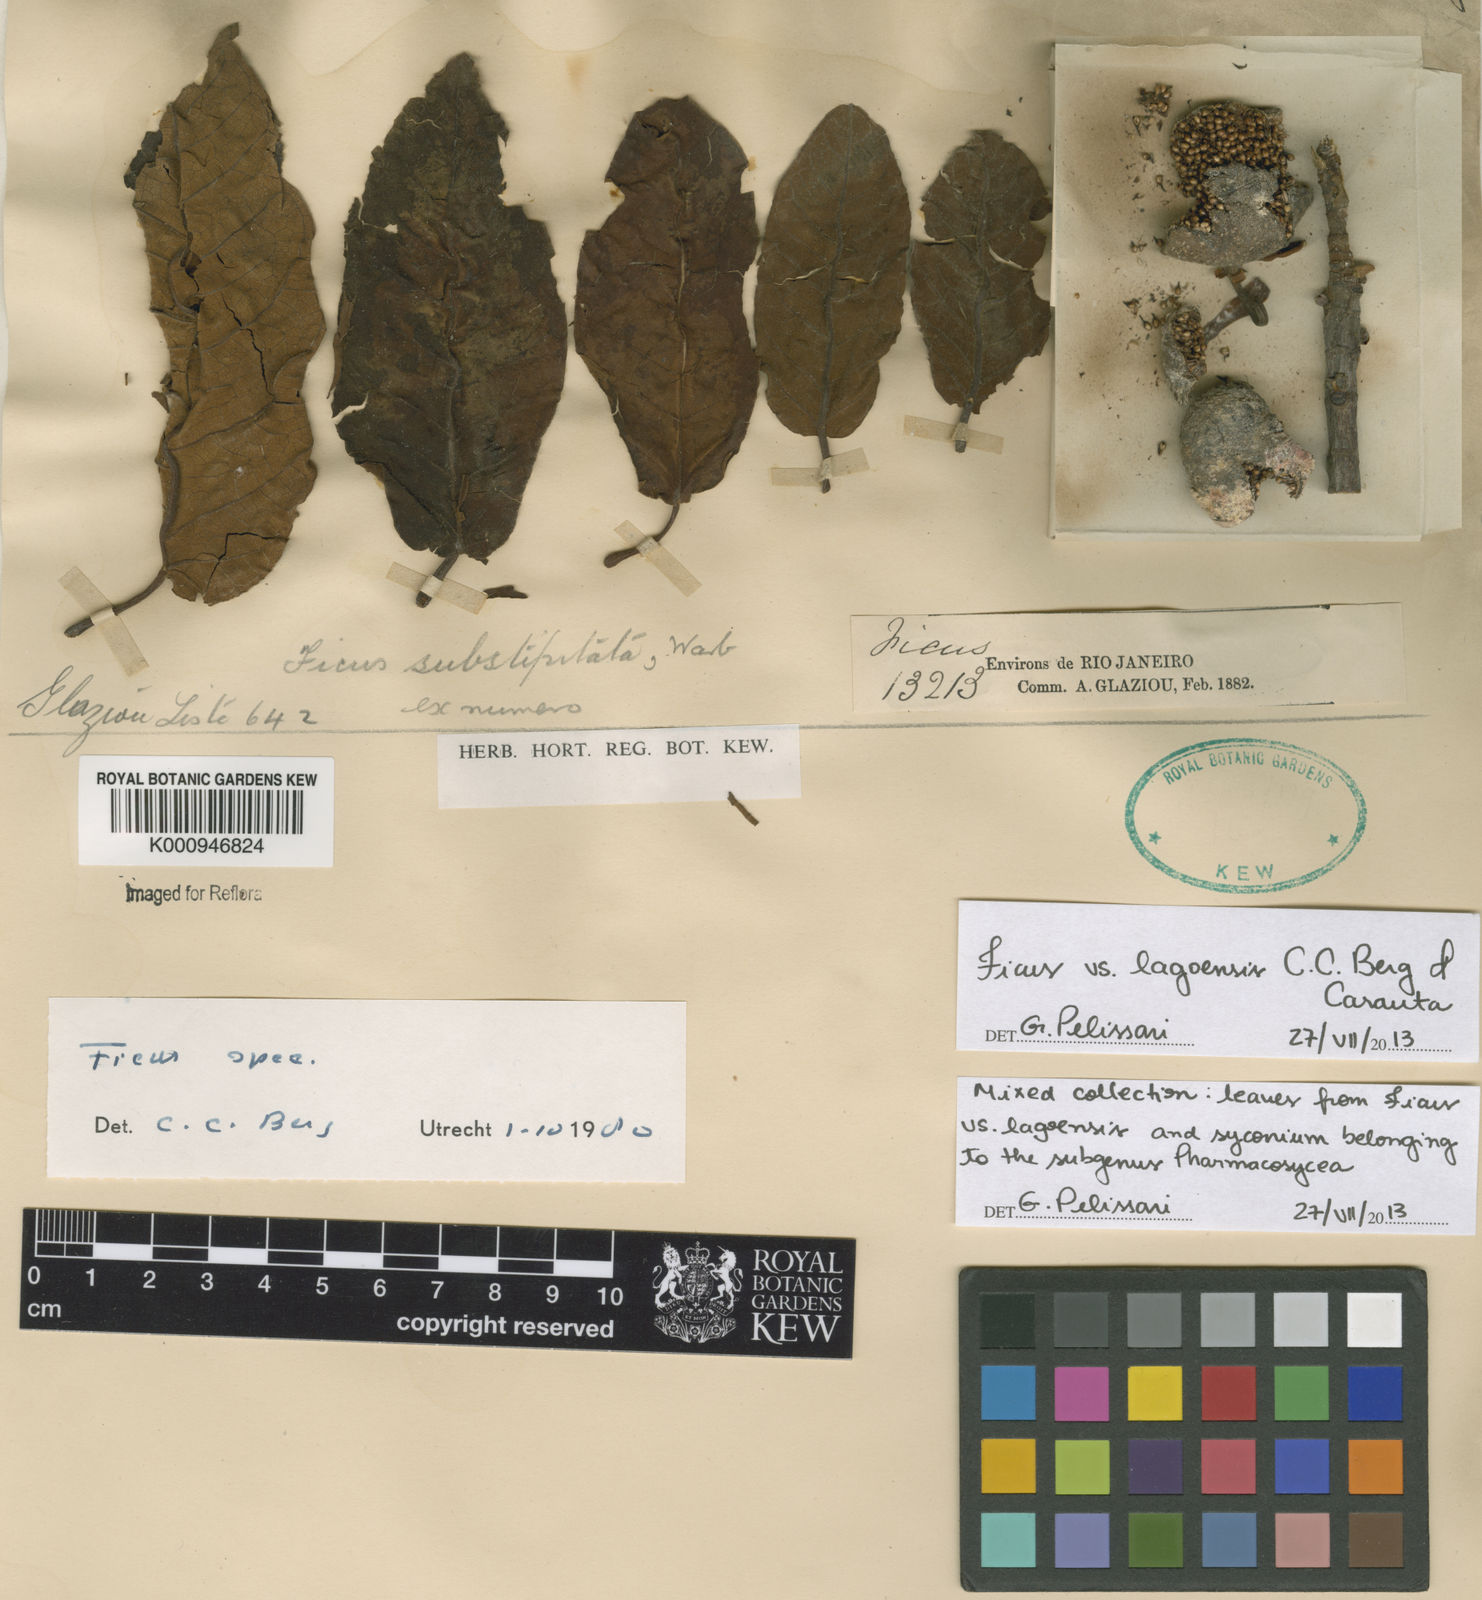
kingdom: Plantae
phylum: Tracheophyta
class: Magnoliopsida
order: Rosales
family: Moraceae
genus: Ficus
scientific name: Ficus
